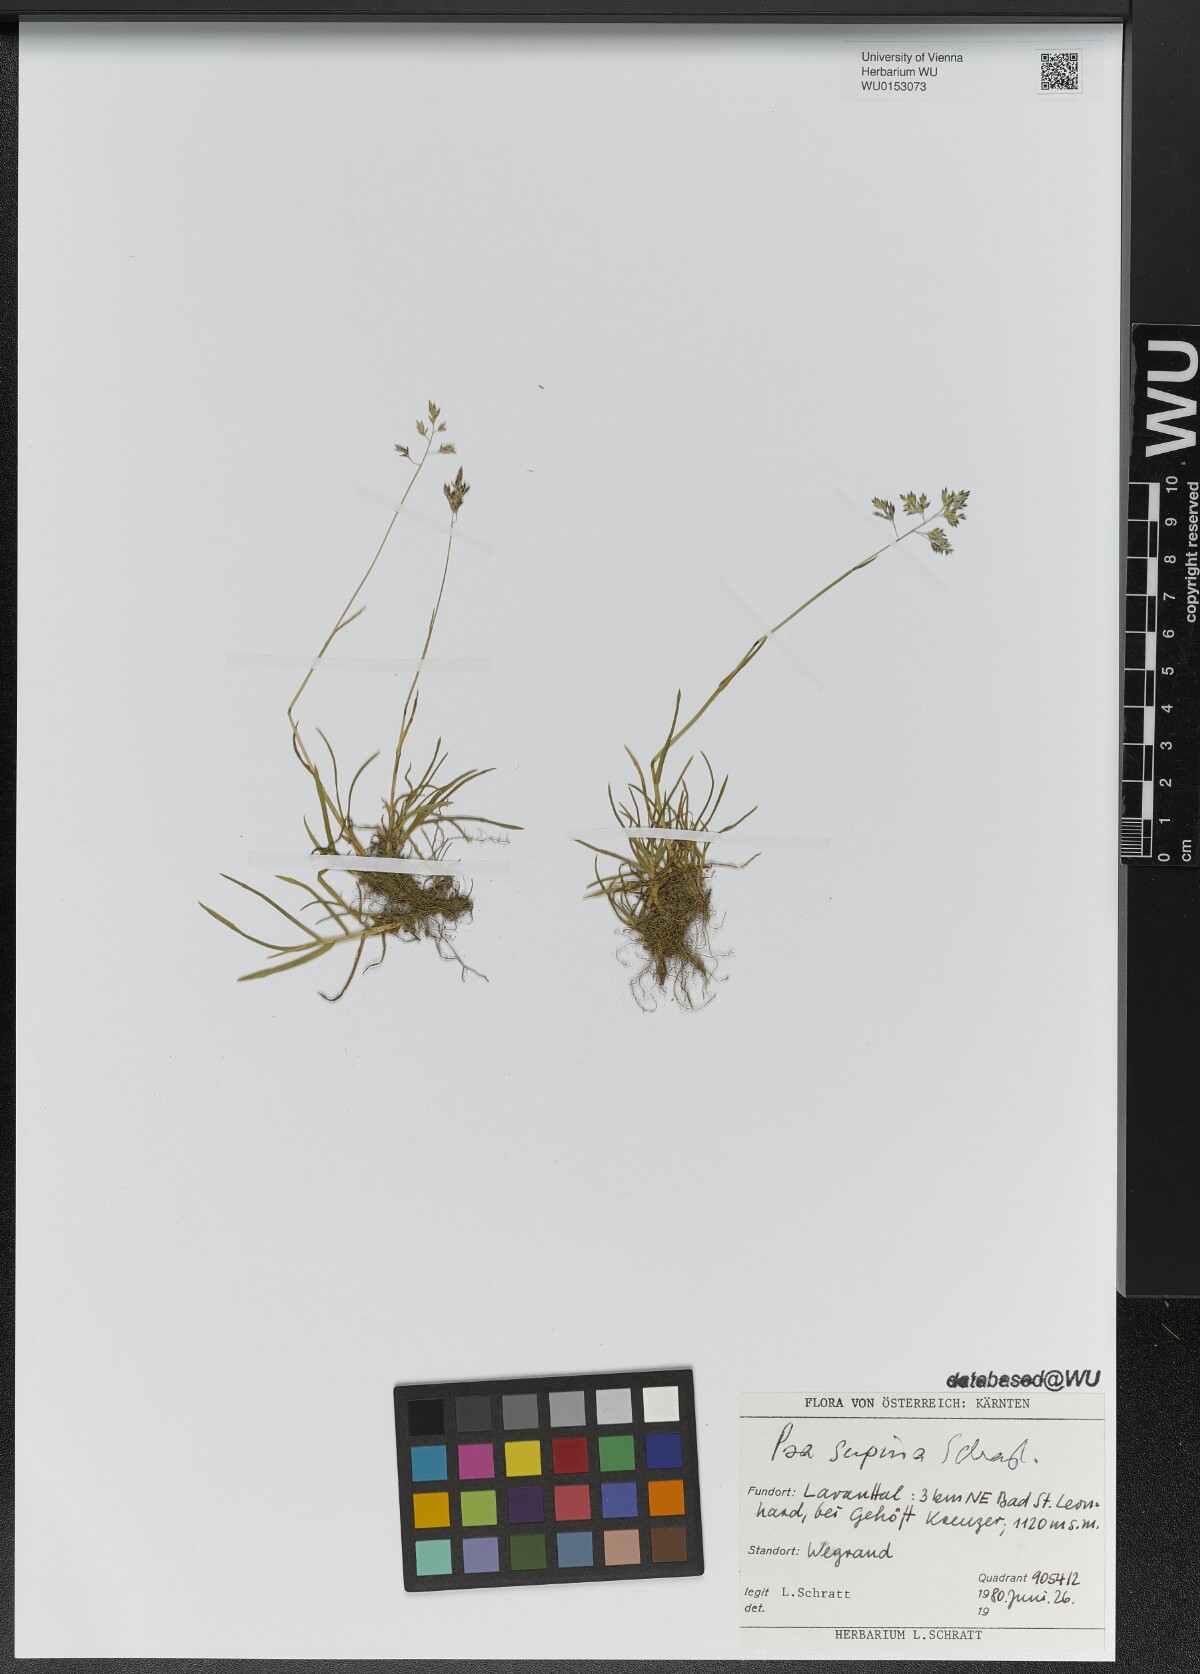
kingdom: Plantae
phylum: Tracheophyta
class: Liliopsida
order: Poales
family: Poaceae
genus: Poa
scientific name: Poa supina
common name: Supina bluegrass
